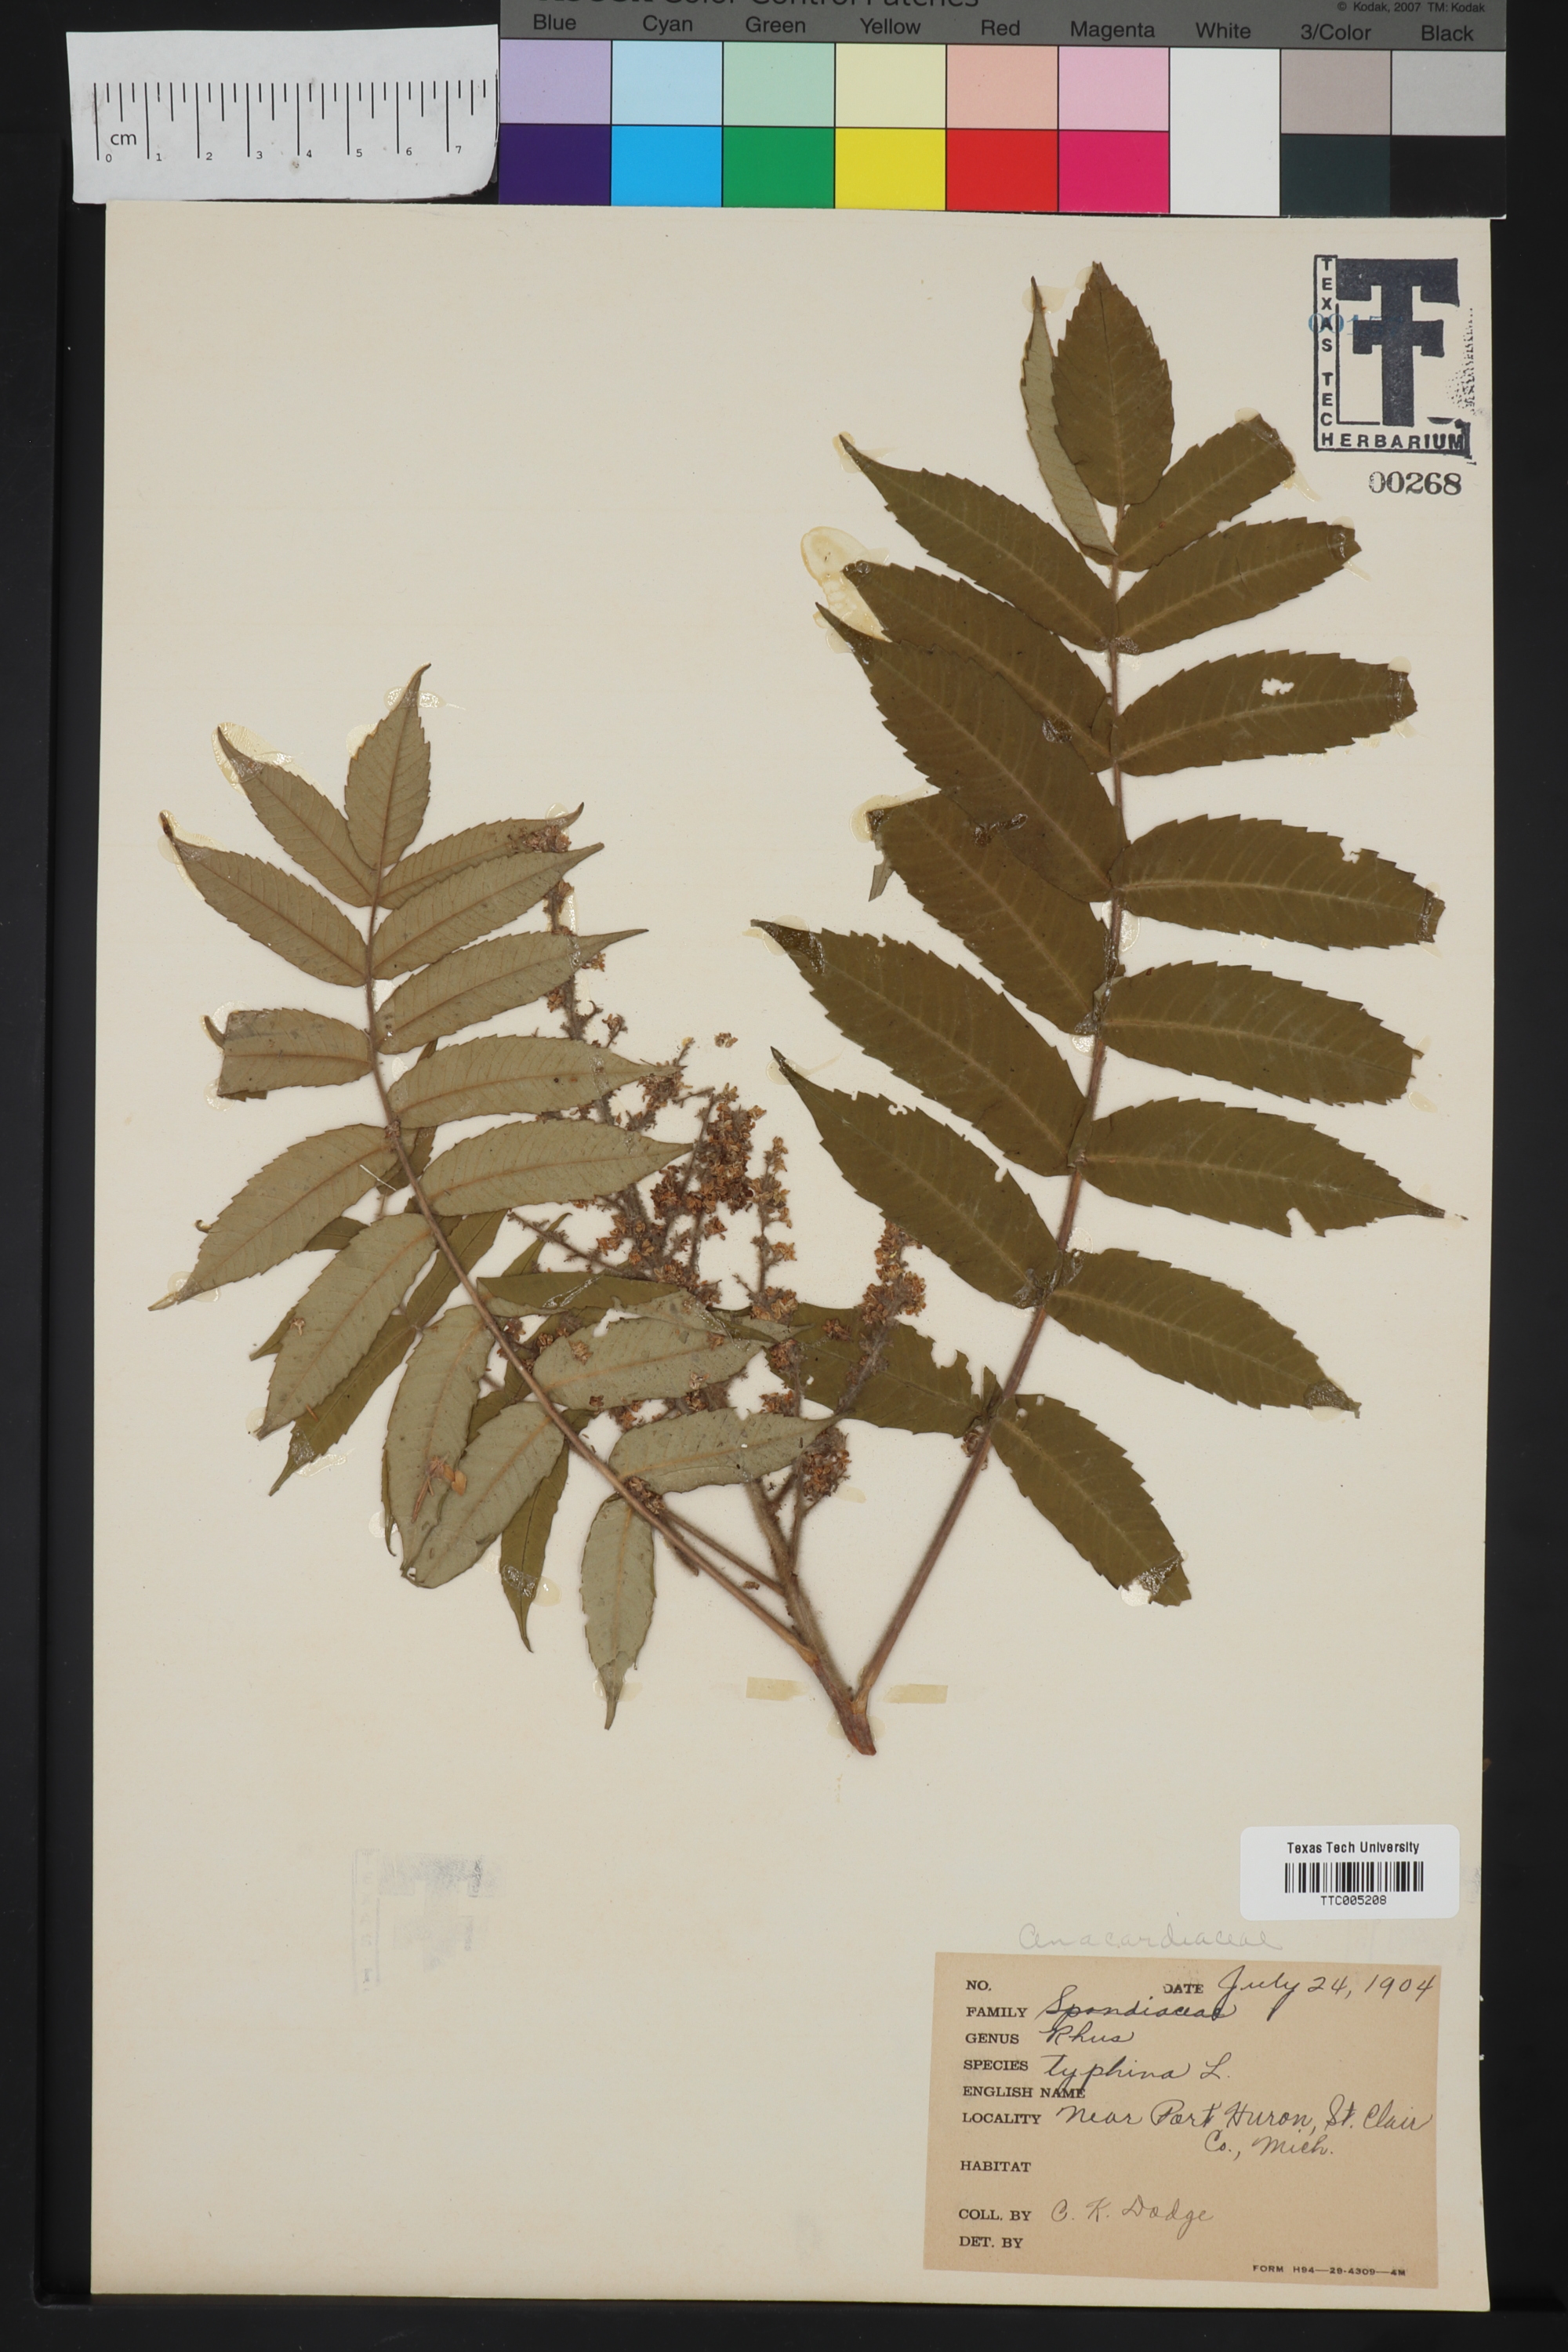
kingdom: Plantae
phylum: Tracheophyta
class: Magnoliopsida
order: Sapindales
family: Anacardiaceae
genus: Rhus
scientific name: Rhus typhina
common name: Staghorn sumac
